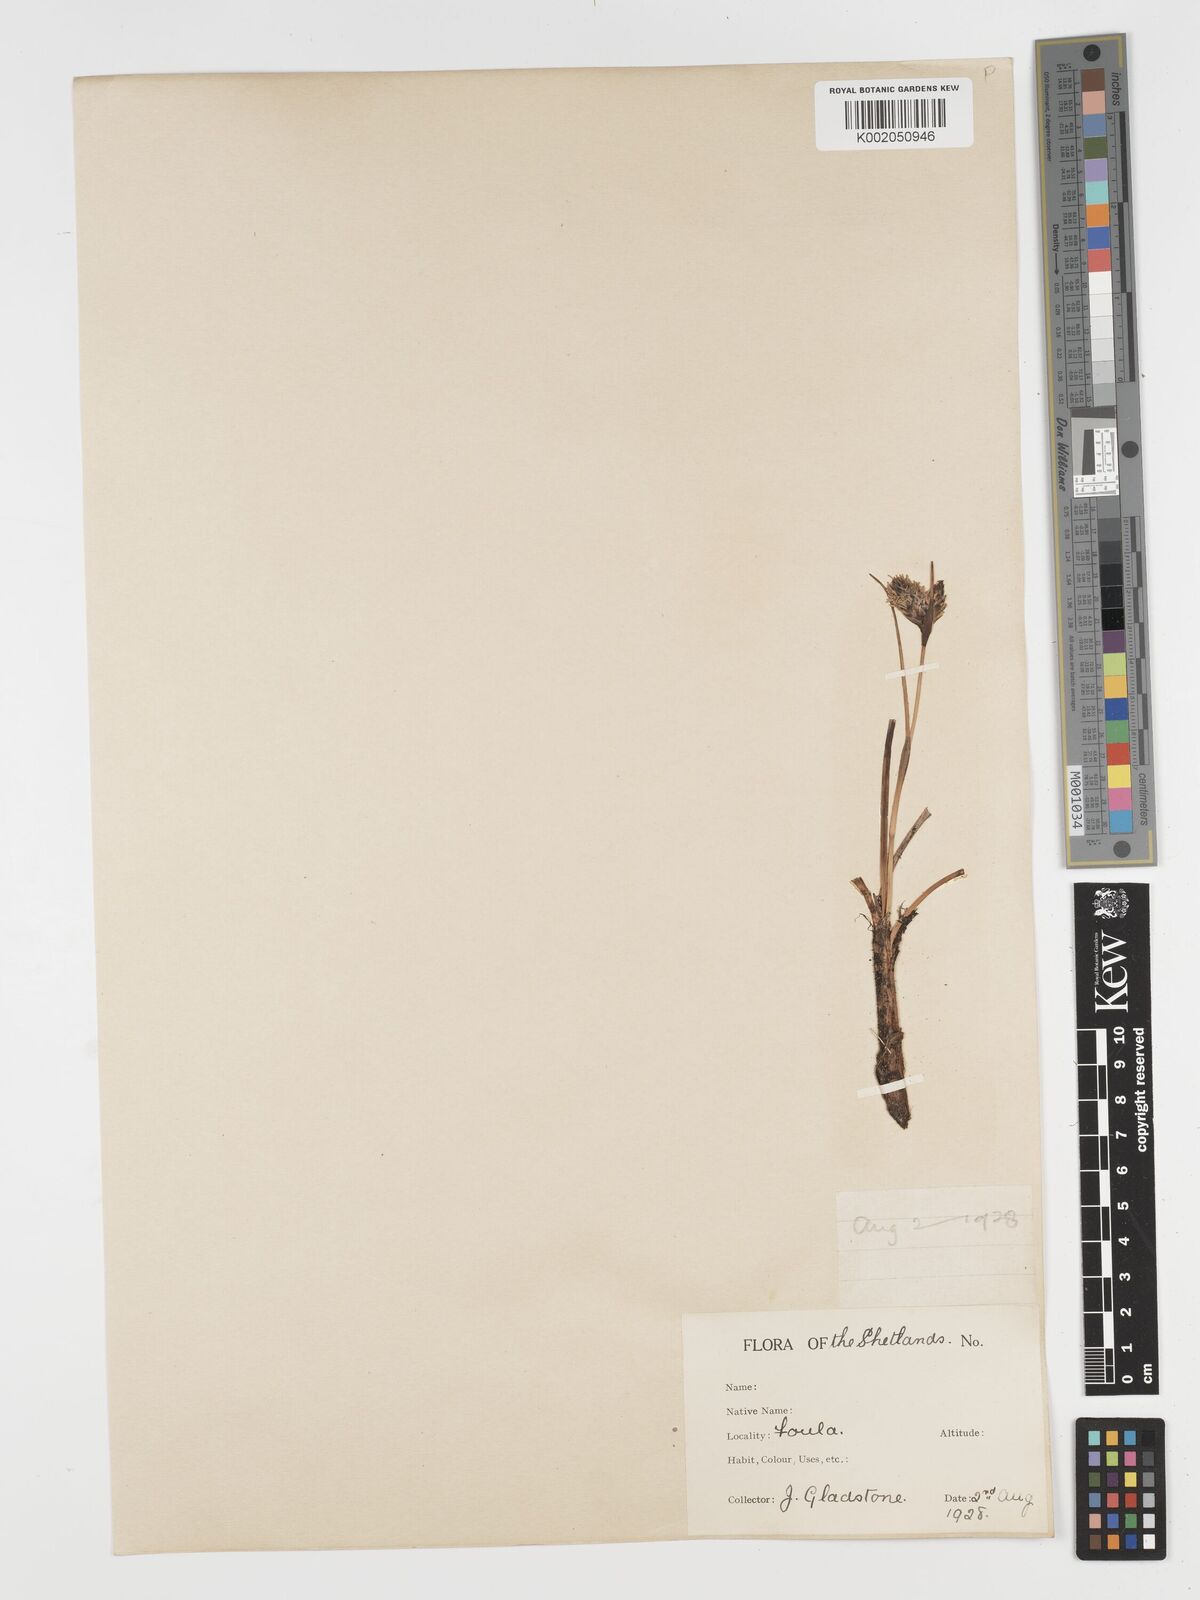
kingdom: Plantae
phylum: Tracheophyta
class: Liliopsida
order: Poales
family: Cyperaceae
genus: Eriophorum
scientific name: Eriophorum angustifolium
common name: Common cottongrass
